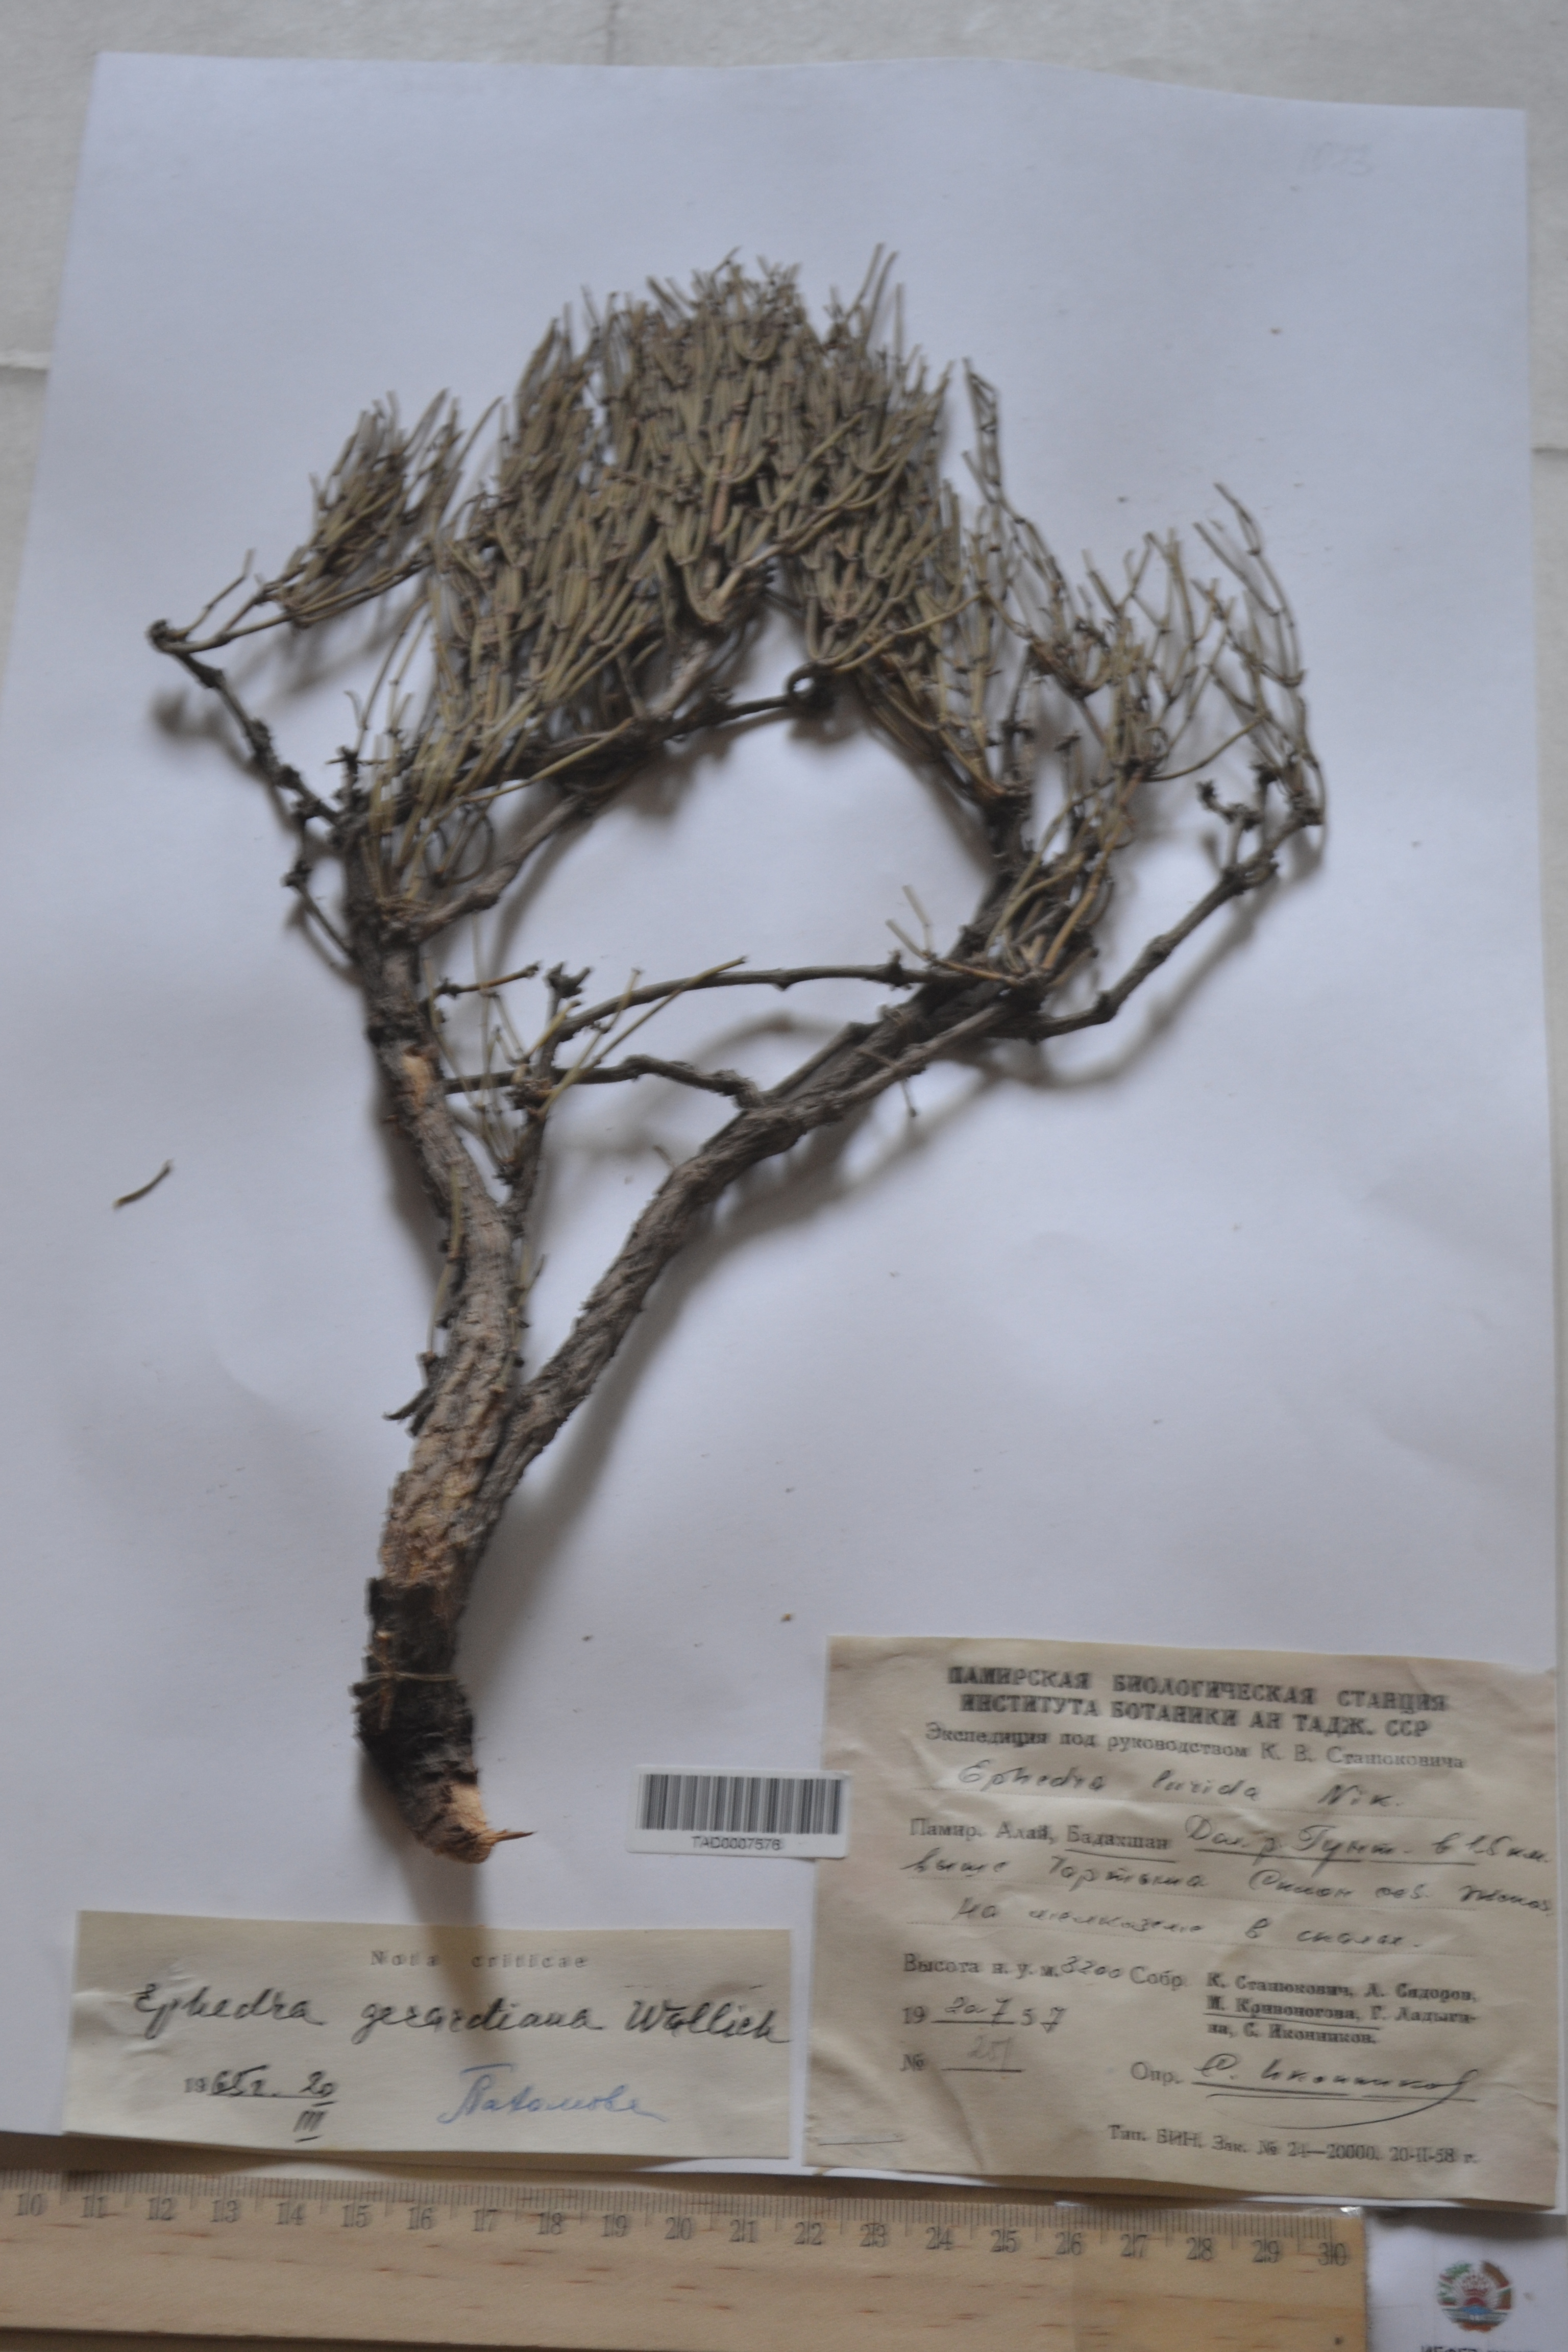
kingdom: Plantae
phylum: Tracheophyta
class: Gnetopsida
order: Ephedrales
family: Ephedraceae
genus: Ephedra
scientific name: Ephedra gerardiana
